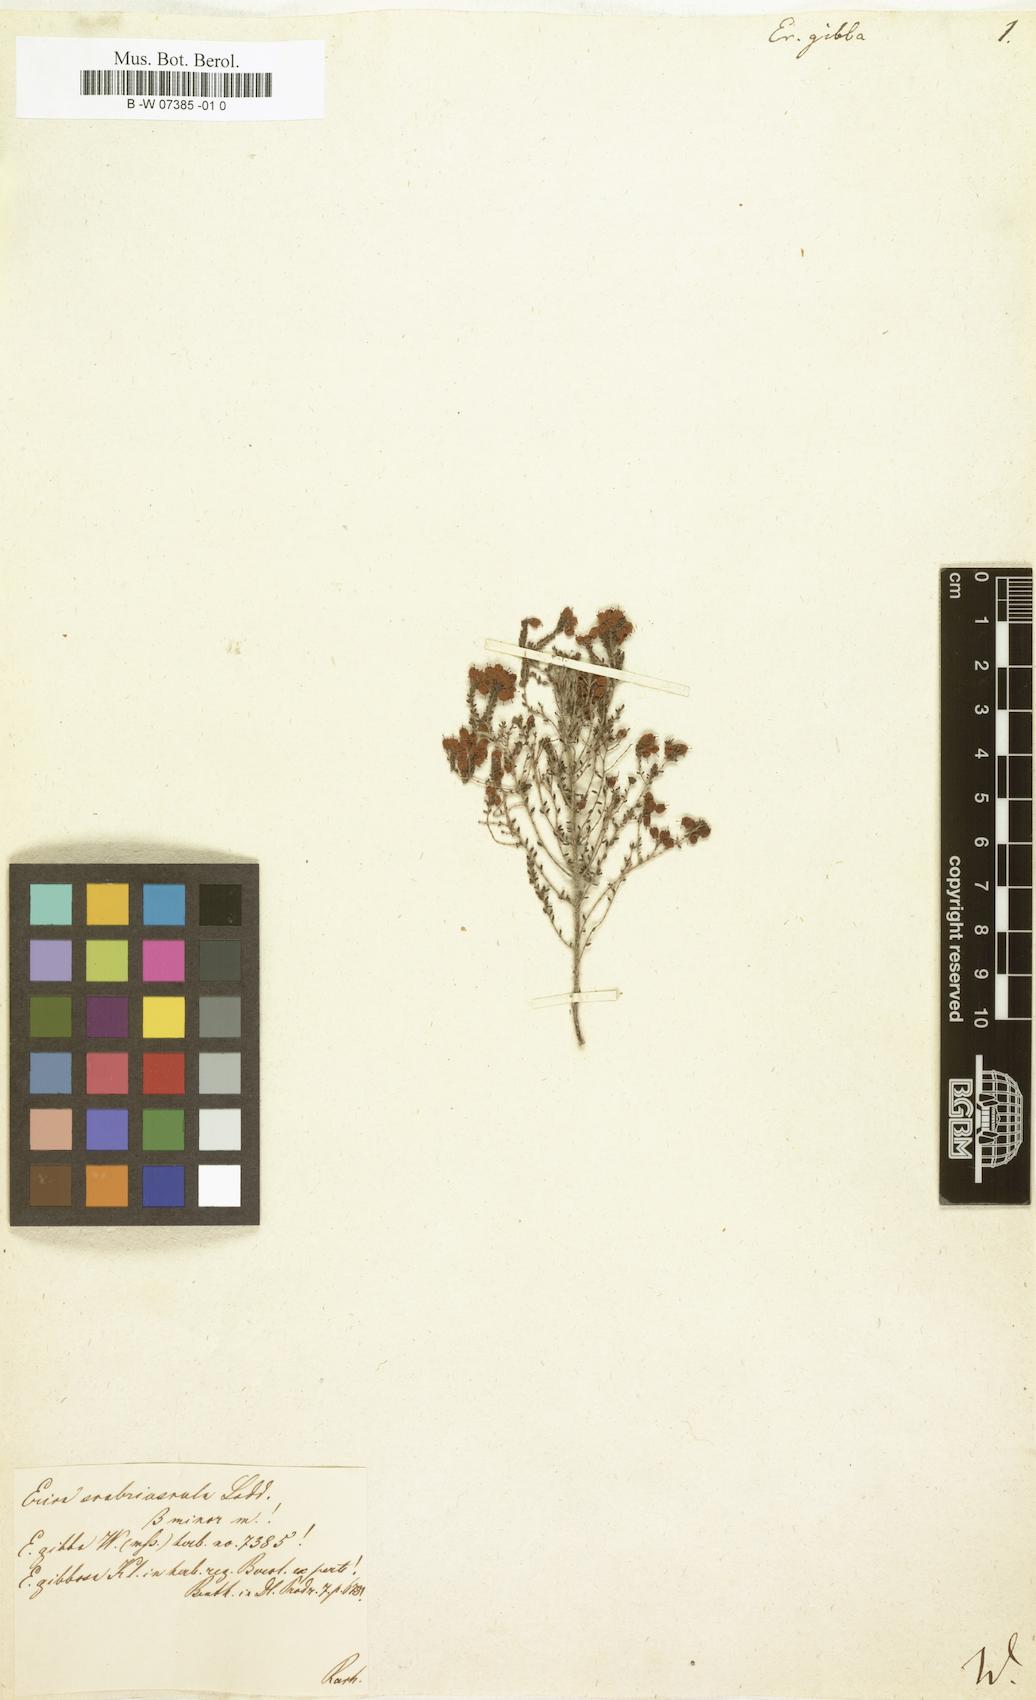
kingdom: Plantae
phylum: Tracheophyta
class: Magnoliopsida
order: Ericales
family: Ericaceae
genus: Erica
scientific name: Erica
